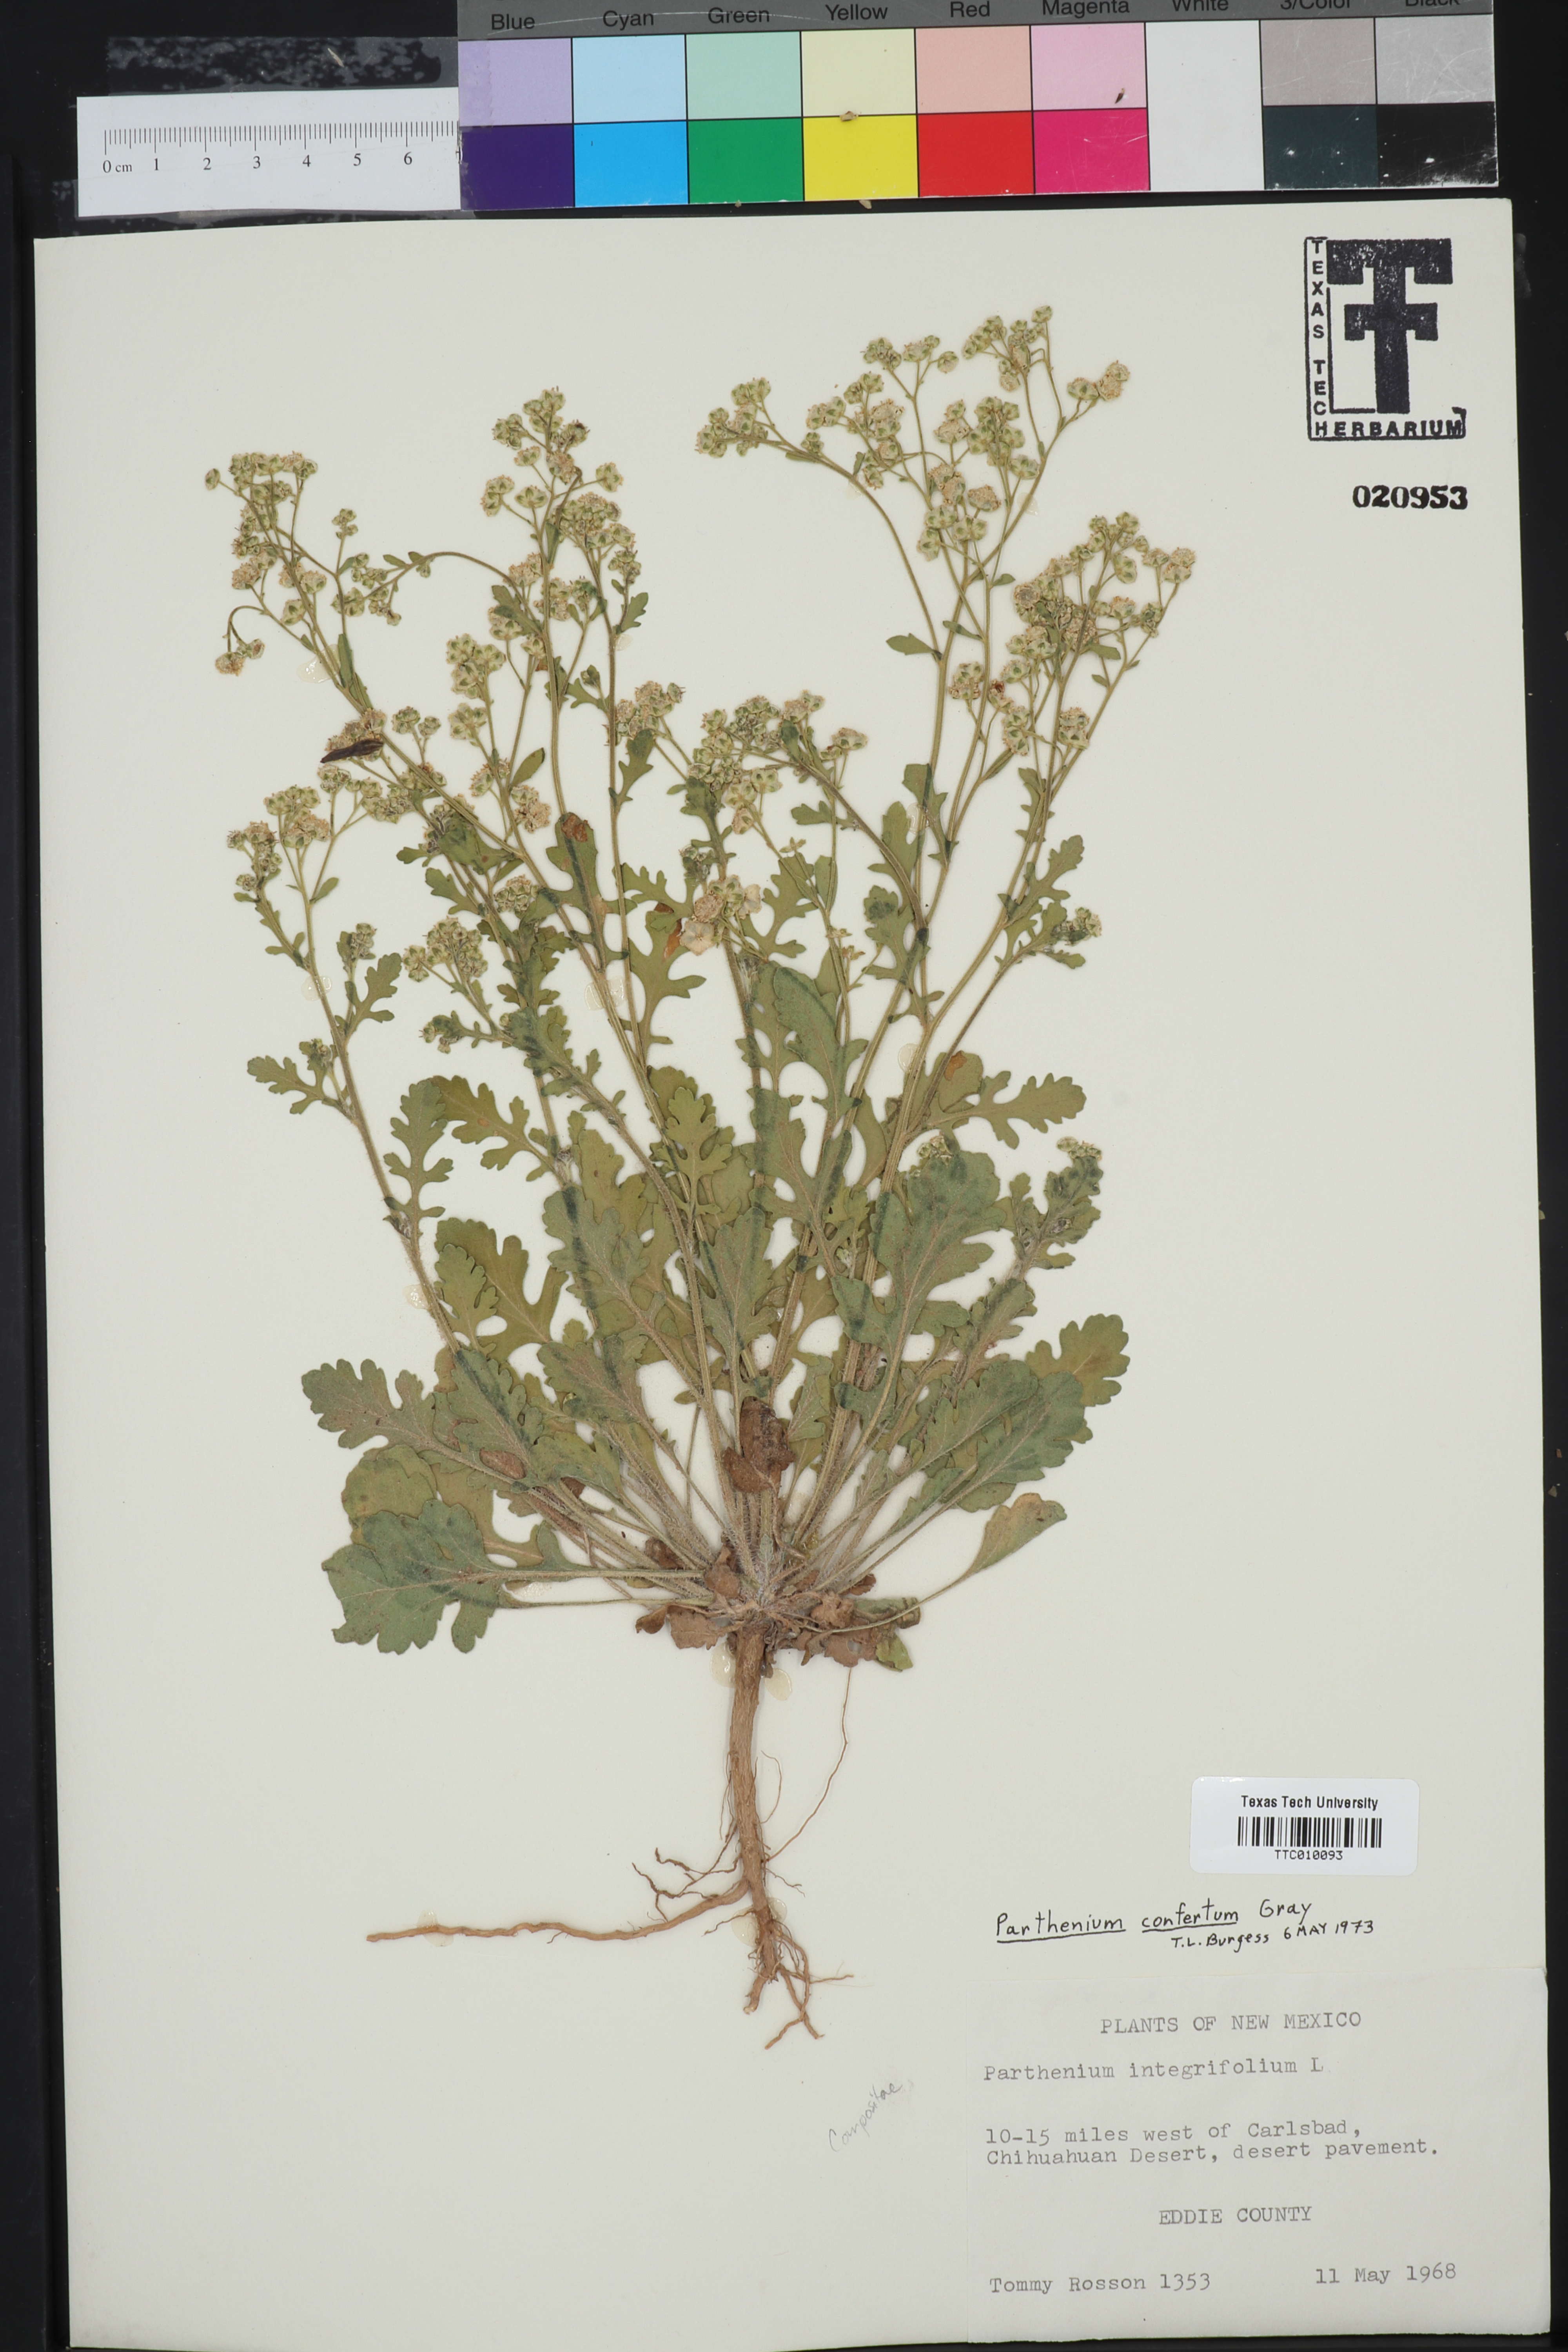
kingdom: Plantae
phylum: Tracheophyta
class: Magnoliopsida
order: Asterales
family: Asteraceae
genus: Parthenium
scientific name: Parthenium confertum
